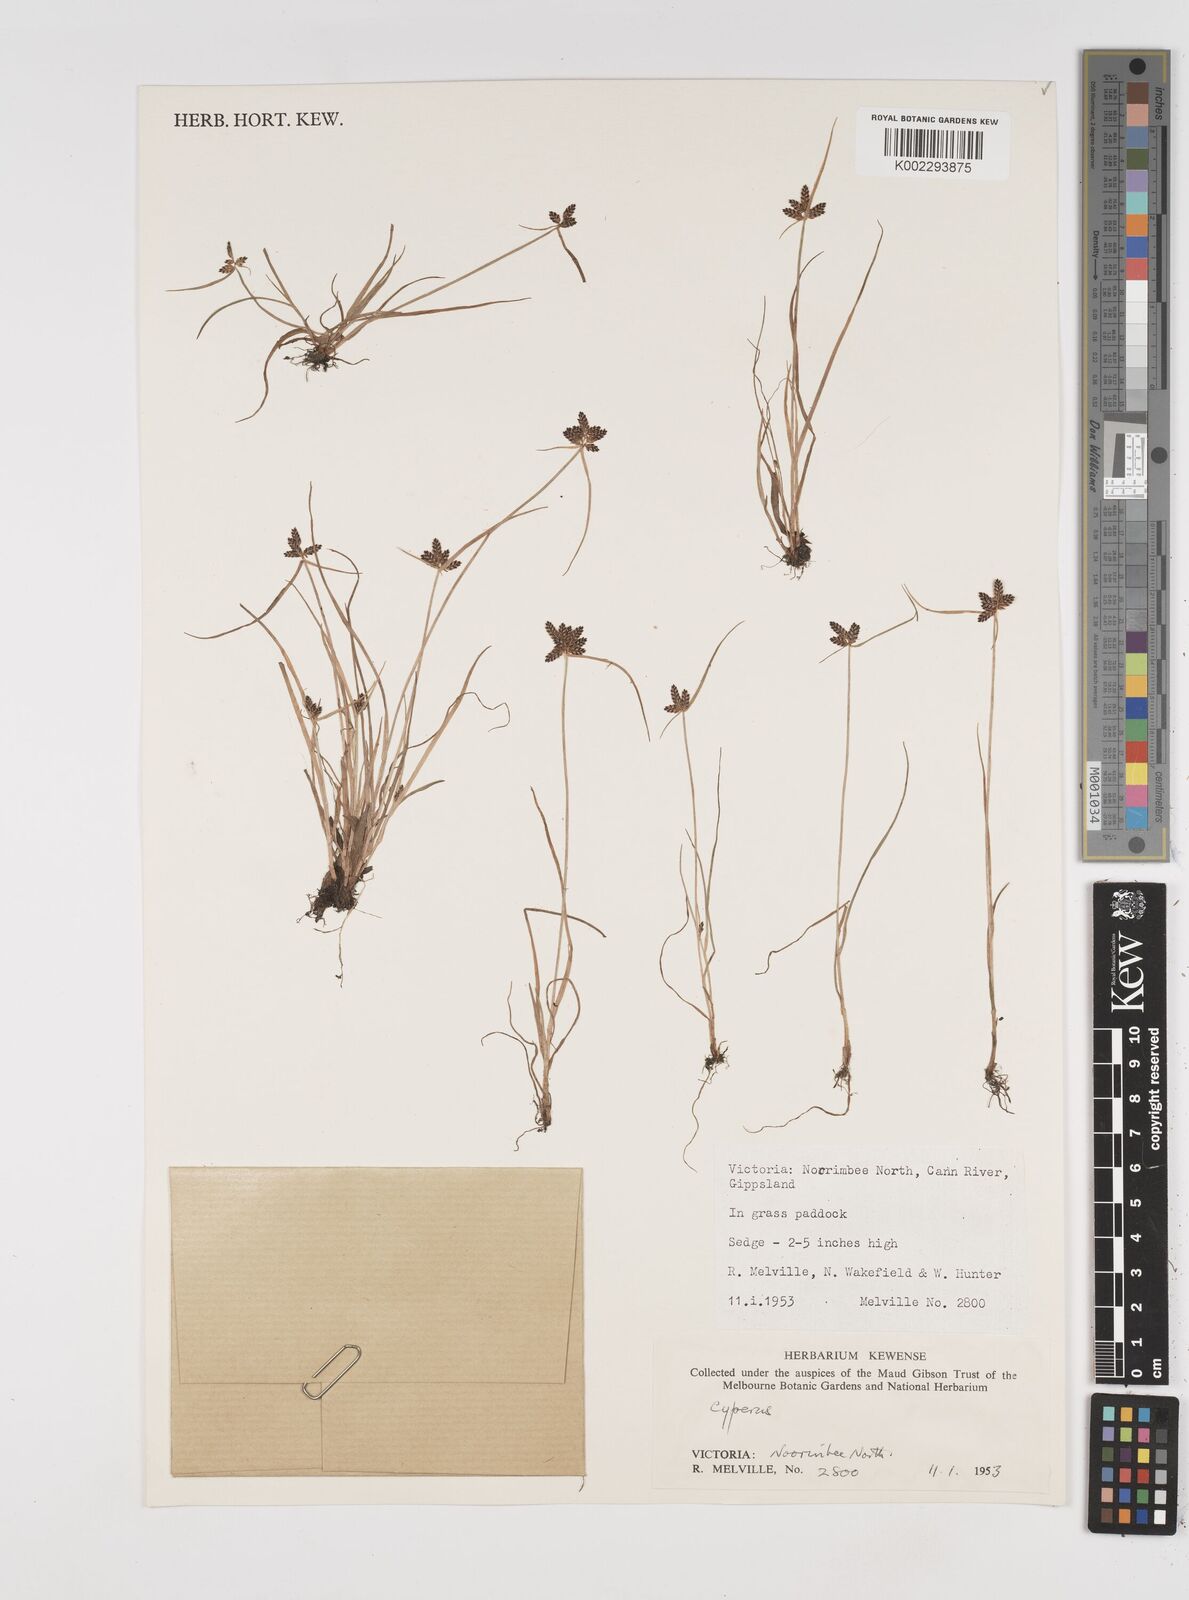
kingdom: Plantae
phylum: Tracheophyta
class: Liliopsida
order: Poales
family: Cyperaceae
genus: Cyperus
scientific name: Cyperus
